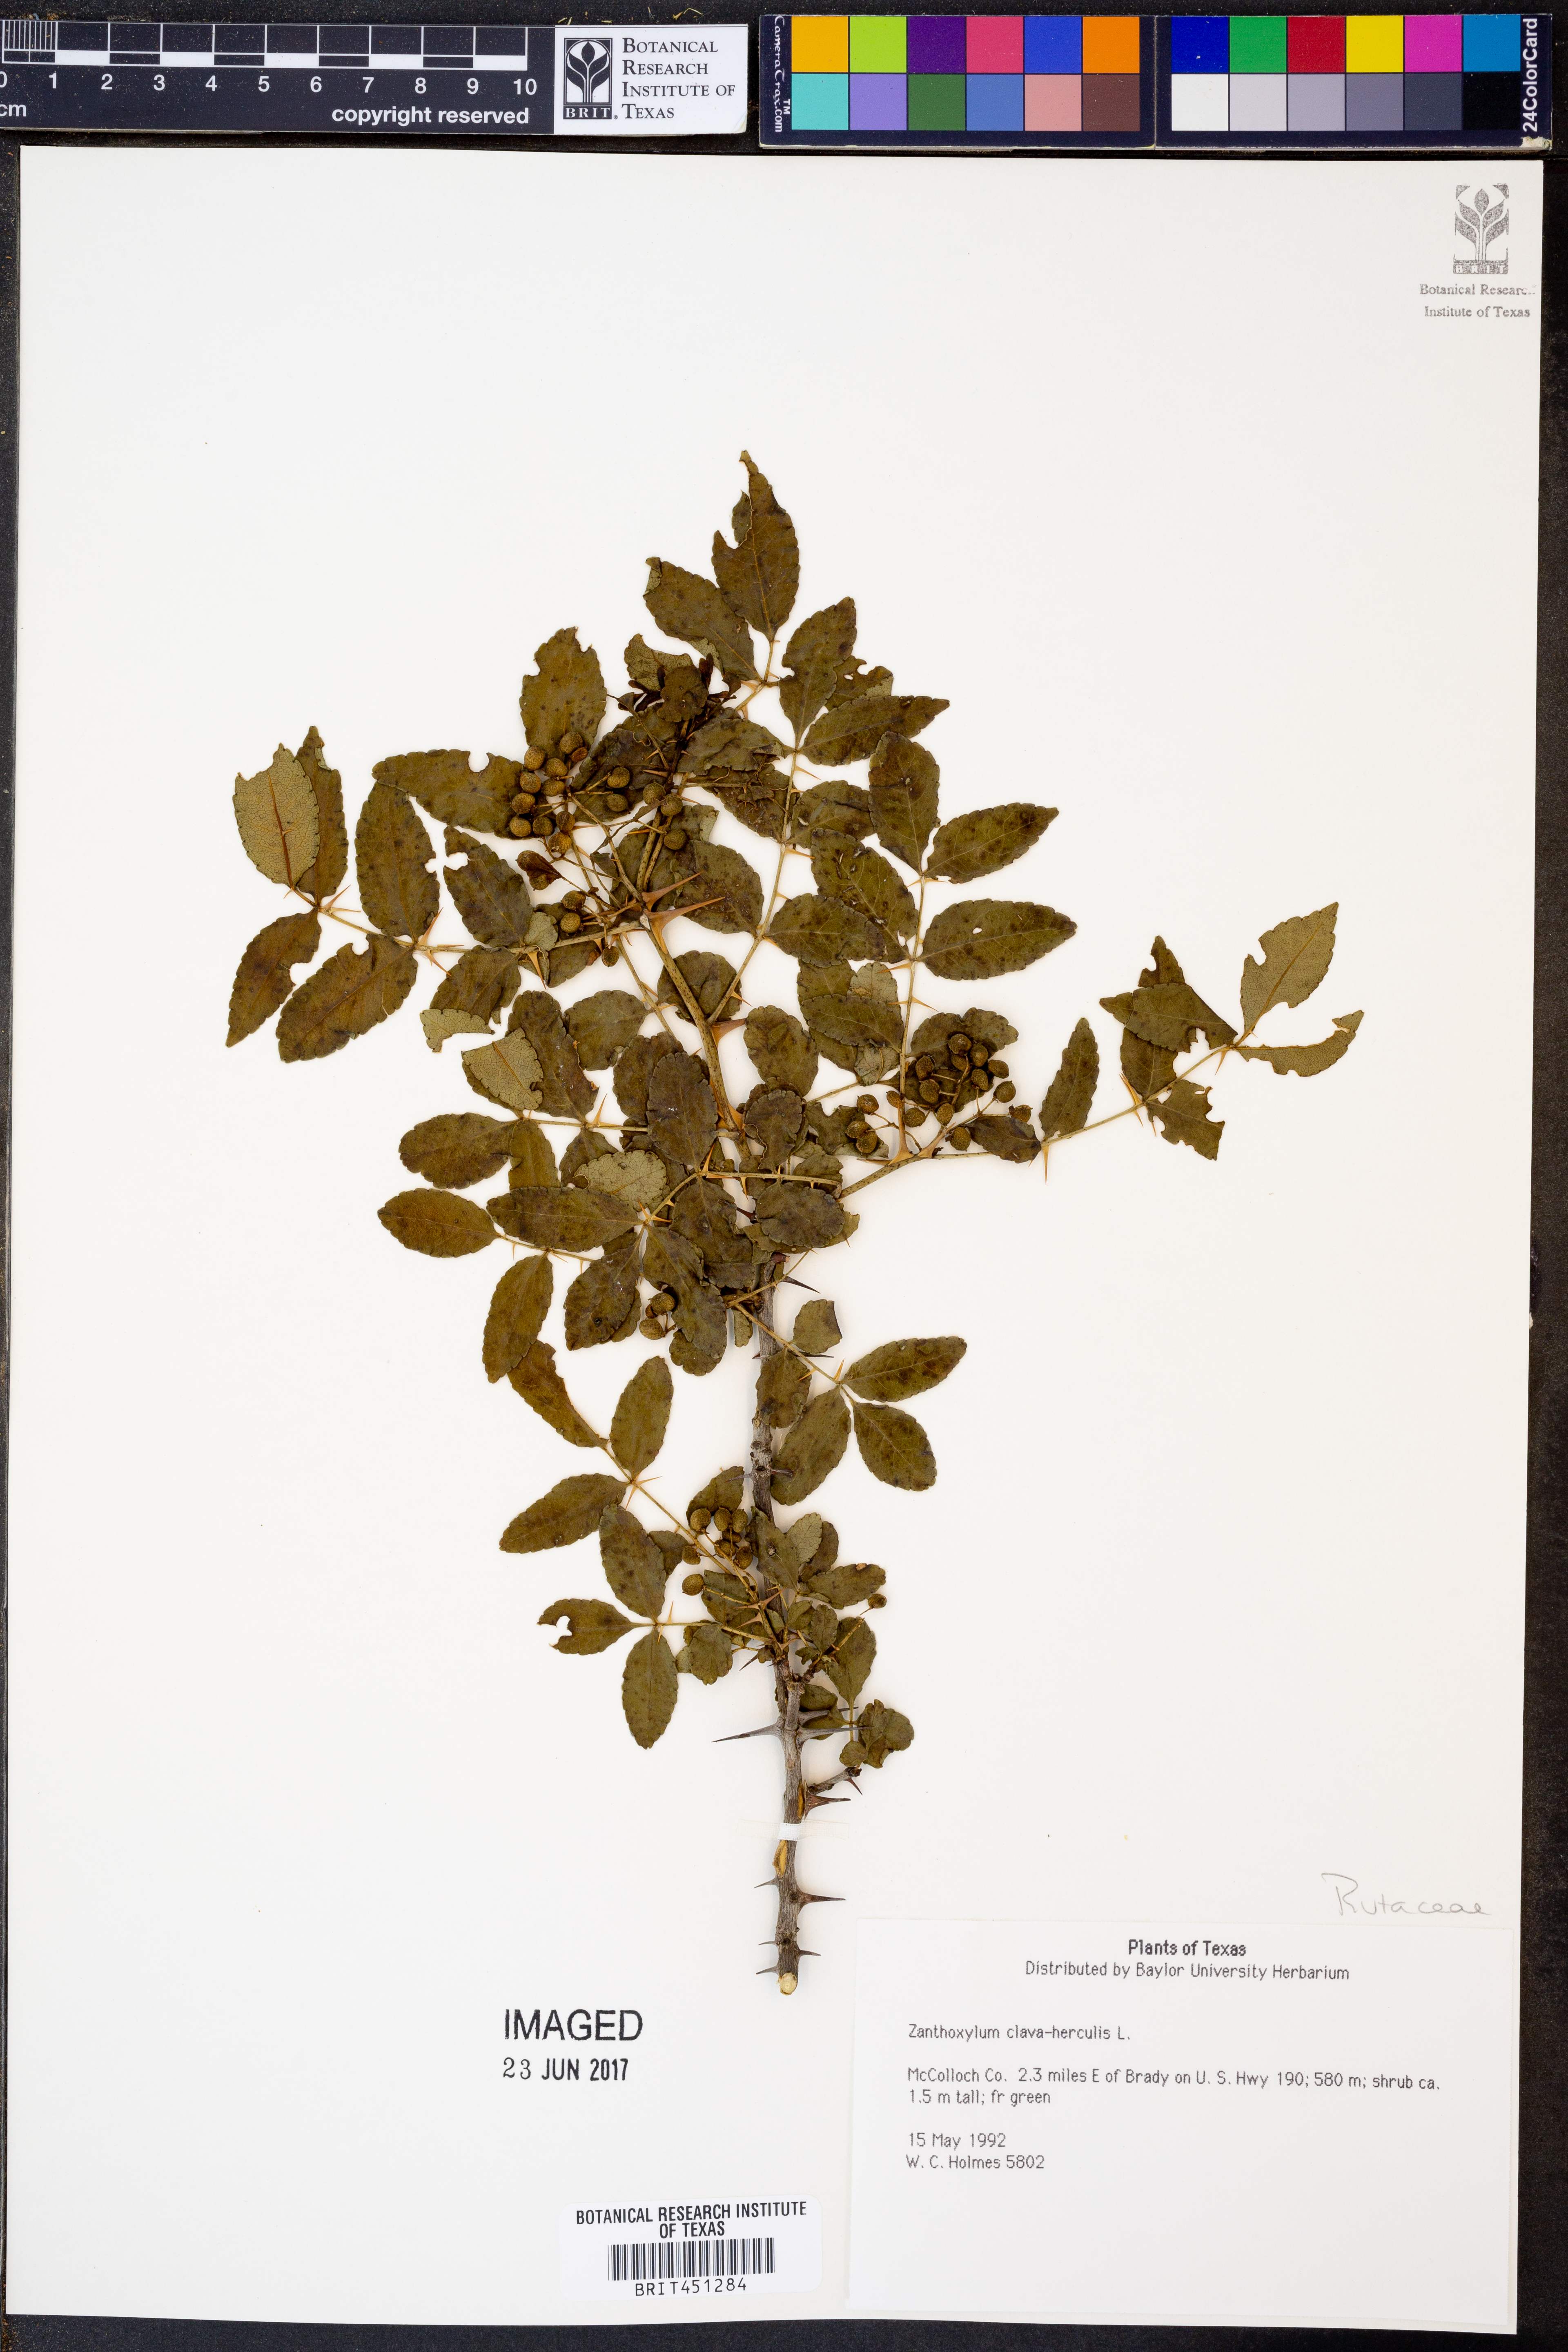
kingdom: Plantae
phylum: Tracheophyta
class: Magnoliopsida
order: Sapindales
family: Rutaceae
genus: Zanthoxylum
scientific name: Zanthoxylum avicennae
